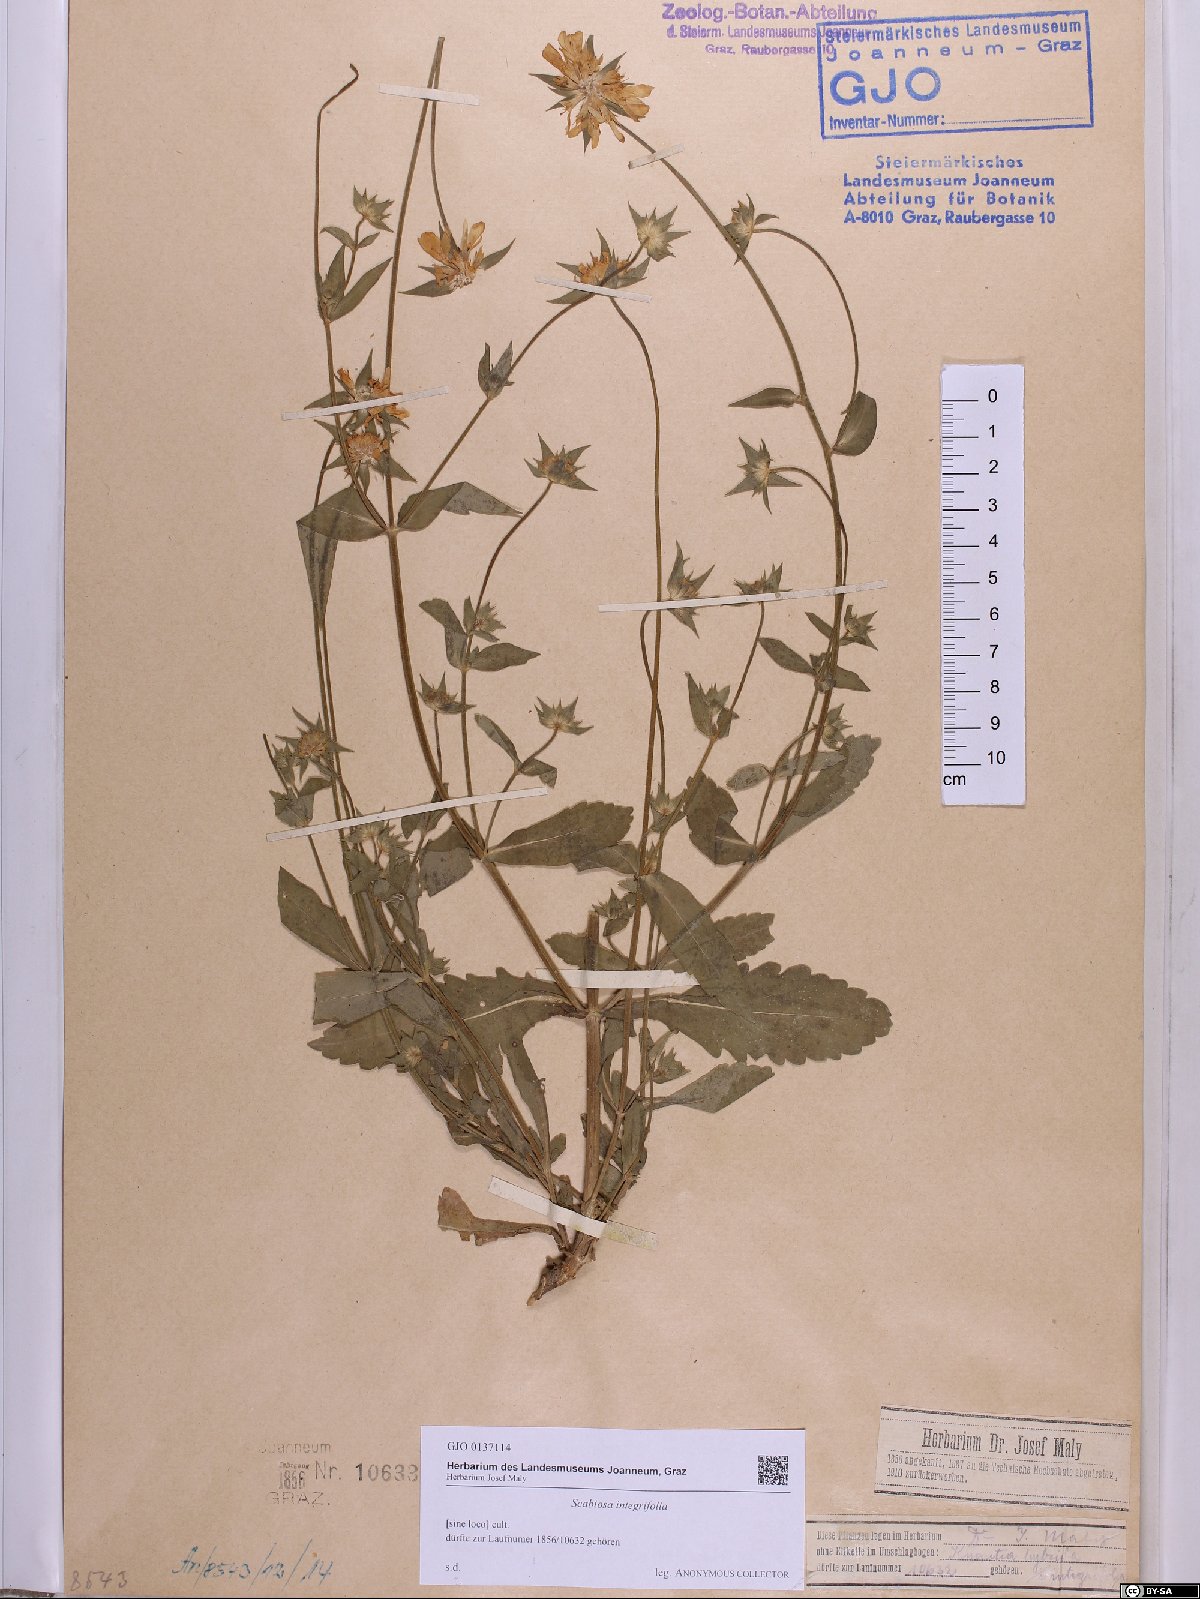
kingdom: Plantae
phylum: Tracheophyta
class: Magnoliopsida
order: Dipsacales
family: Caprifoliaceae
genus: Knautia
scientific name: Knautia integrifolia
